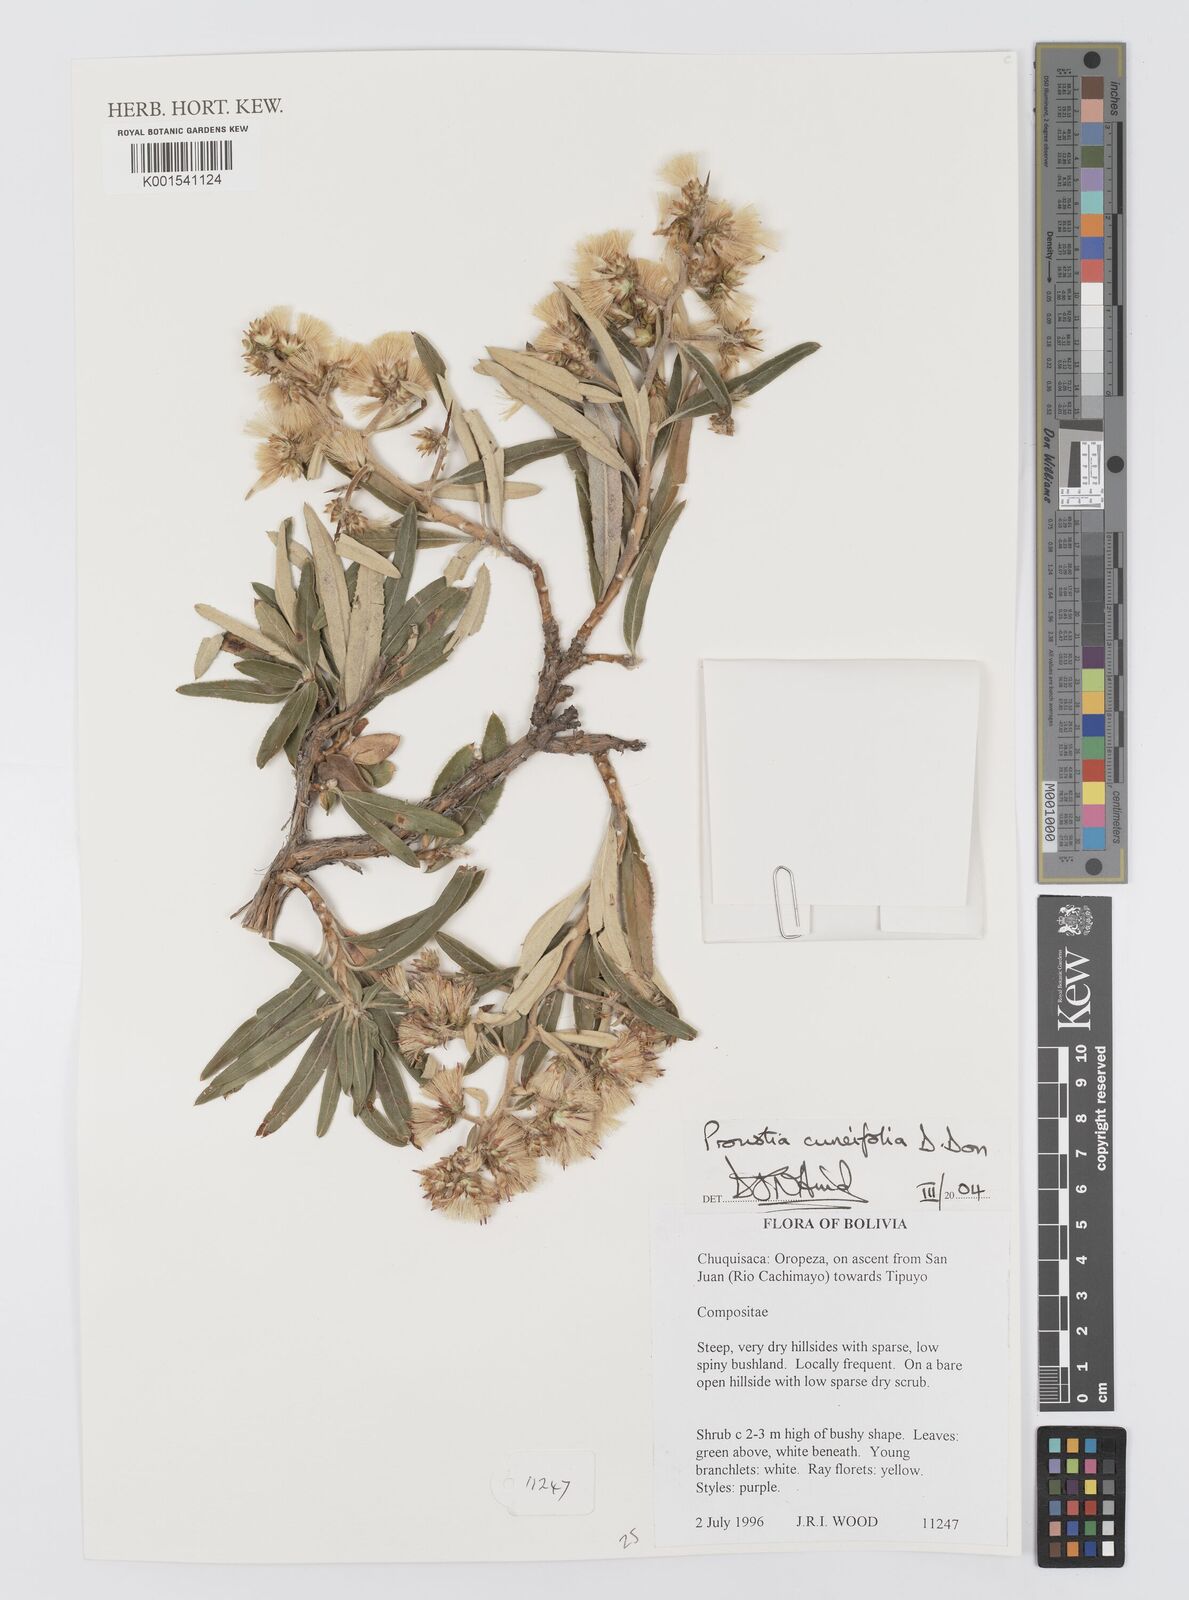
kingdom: Plantae
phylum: Tracheophyta
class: Magnoliopsida
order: Asterales
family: Asteraceae
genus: Proustia
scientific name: Proustia cuneifolia
